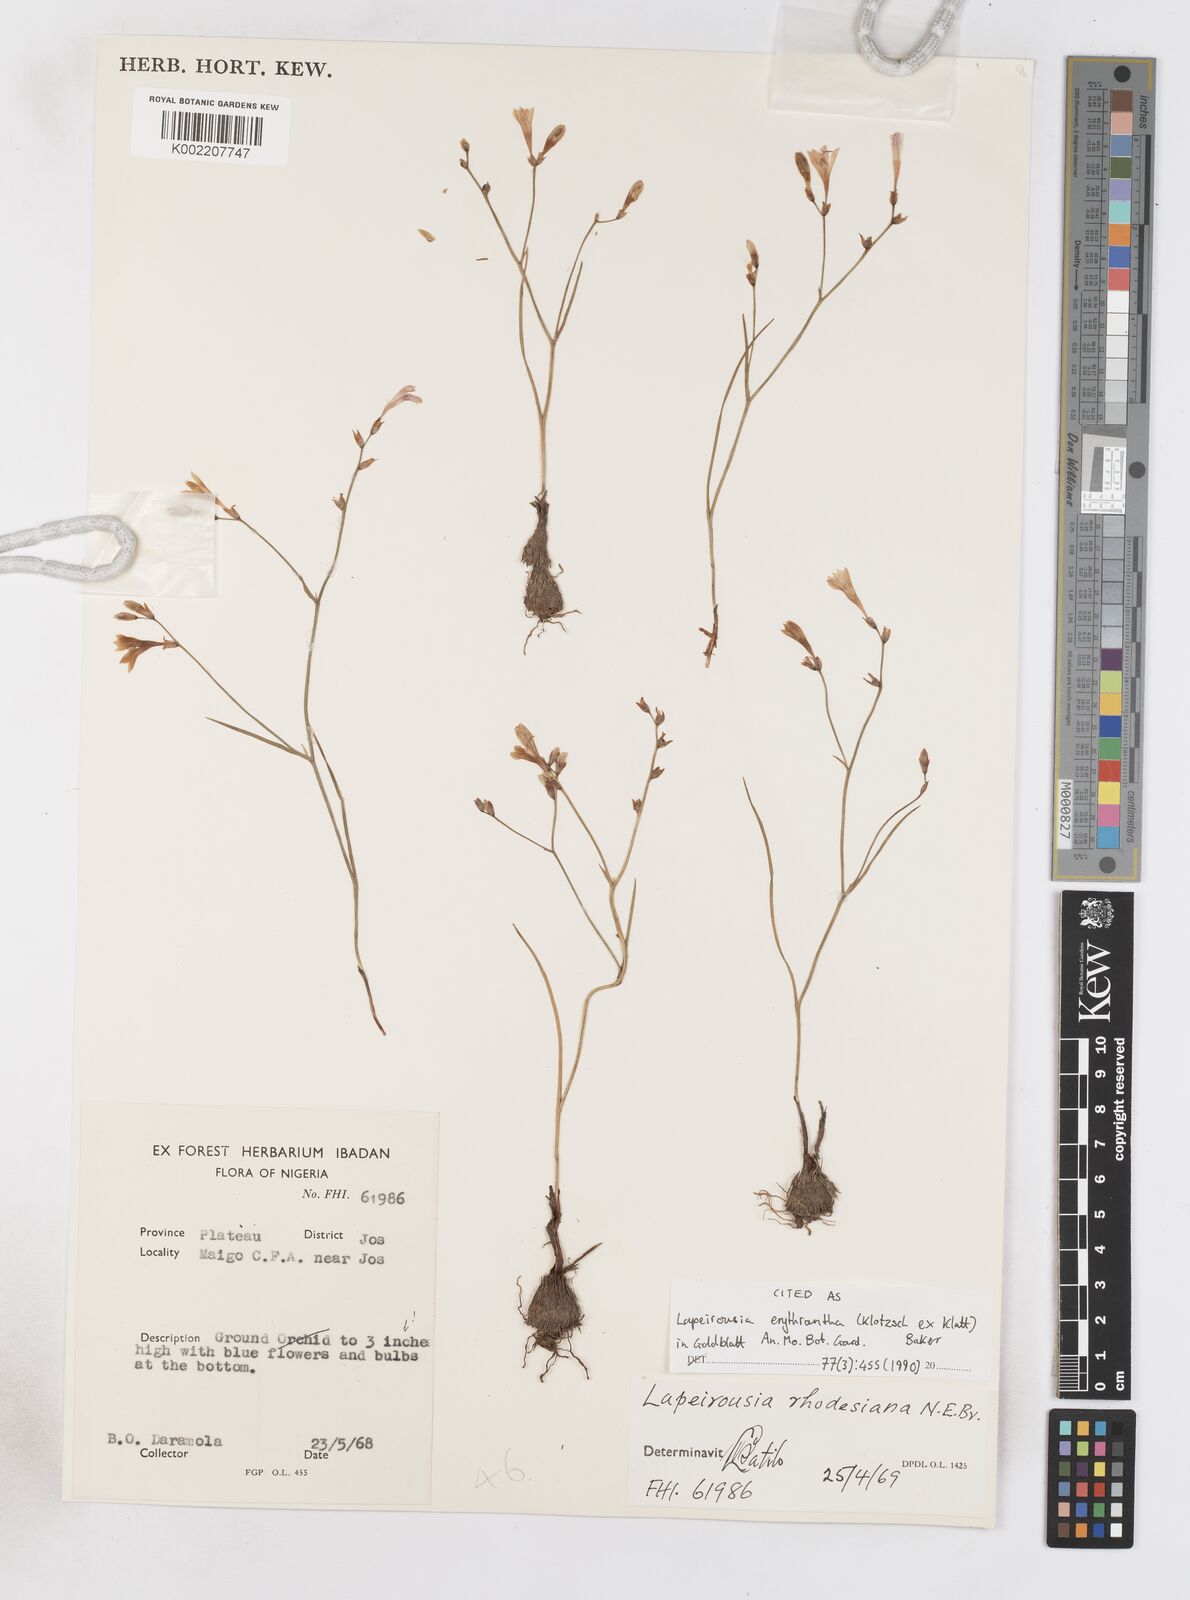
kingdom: Plantae
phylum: Tracheophyta
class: Liliopsida
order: Asparagales
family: Iridaceae
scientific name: Iridaceae
